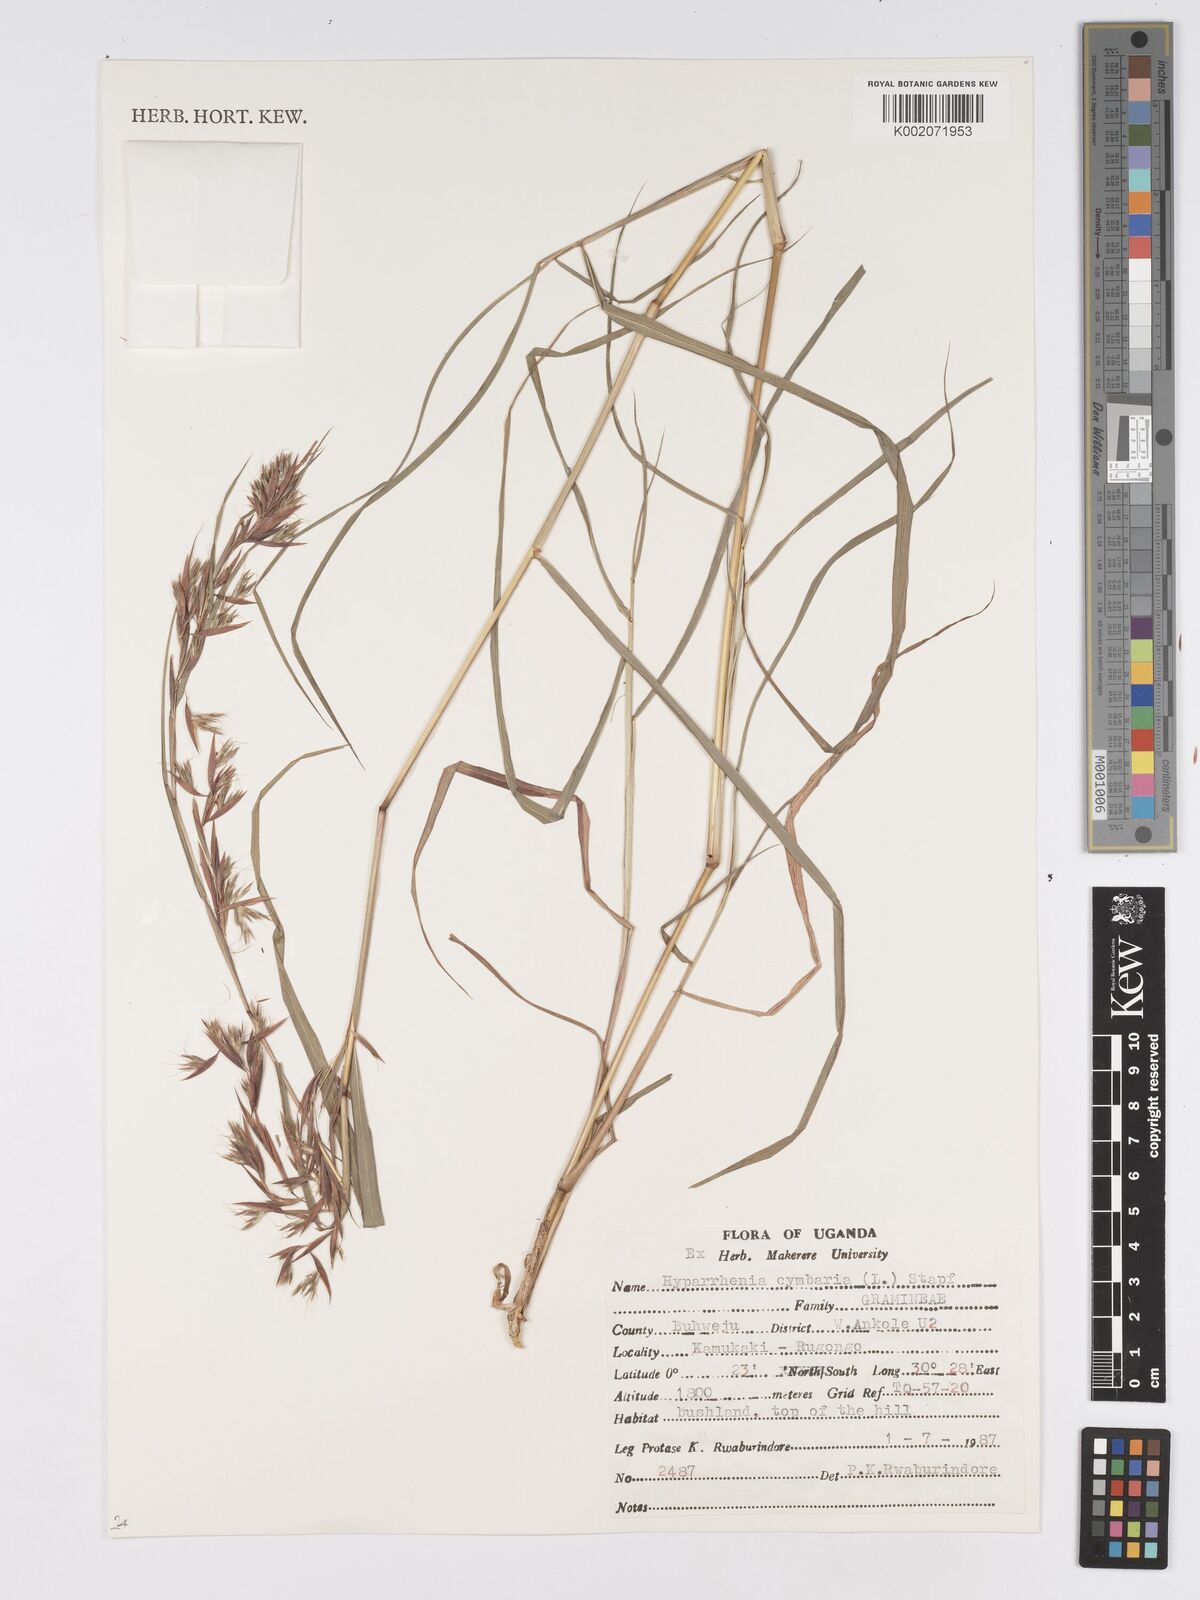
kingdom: Plantae
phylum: Tracheophyta
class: Liliopsida
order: Poales
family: Poaceae
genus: Hyparrhenia
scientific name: Hyparrhenia cymbaria
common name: Boat thatching grass
